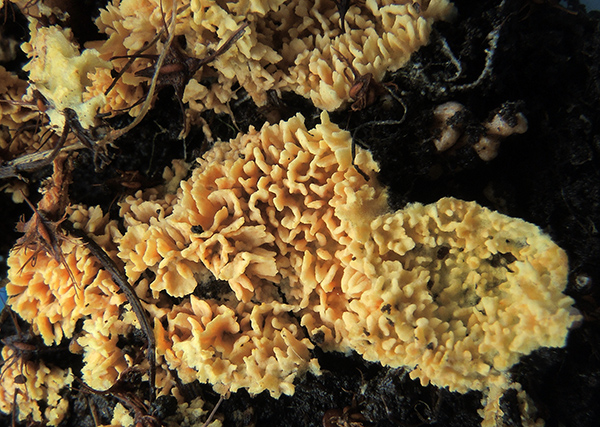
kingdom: Fungi
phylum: Basidiomycota
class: Agaricomycetes
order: Agaricales
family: Stephanosporaceae
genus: Lindtneria
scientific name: Lindtneria panphyliensis
